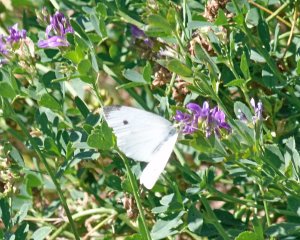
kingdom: Animalia
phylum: Arthropoda
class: Insecta
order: Lepidoptera
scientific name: Lepidoptera
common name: Butterflies
